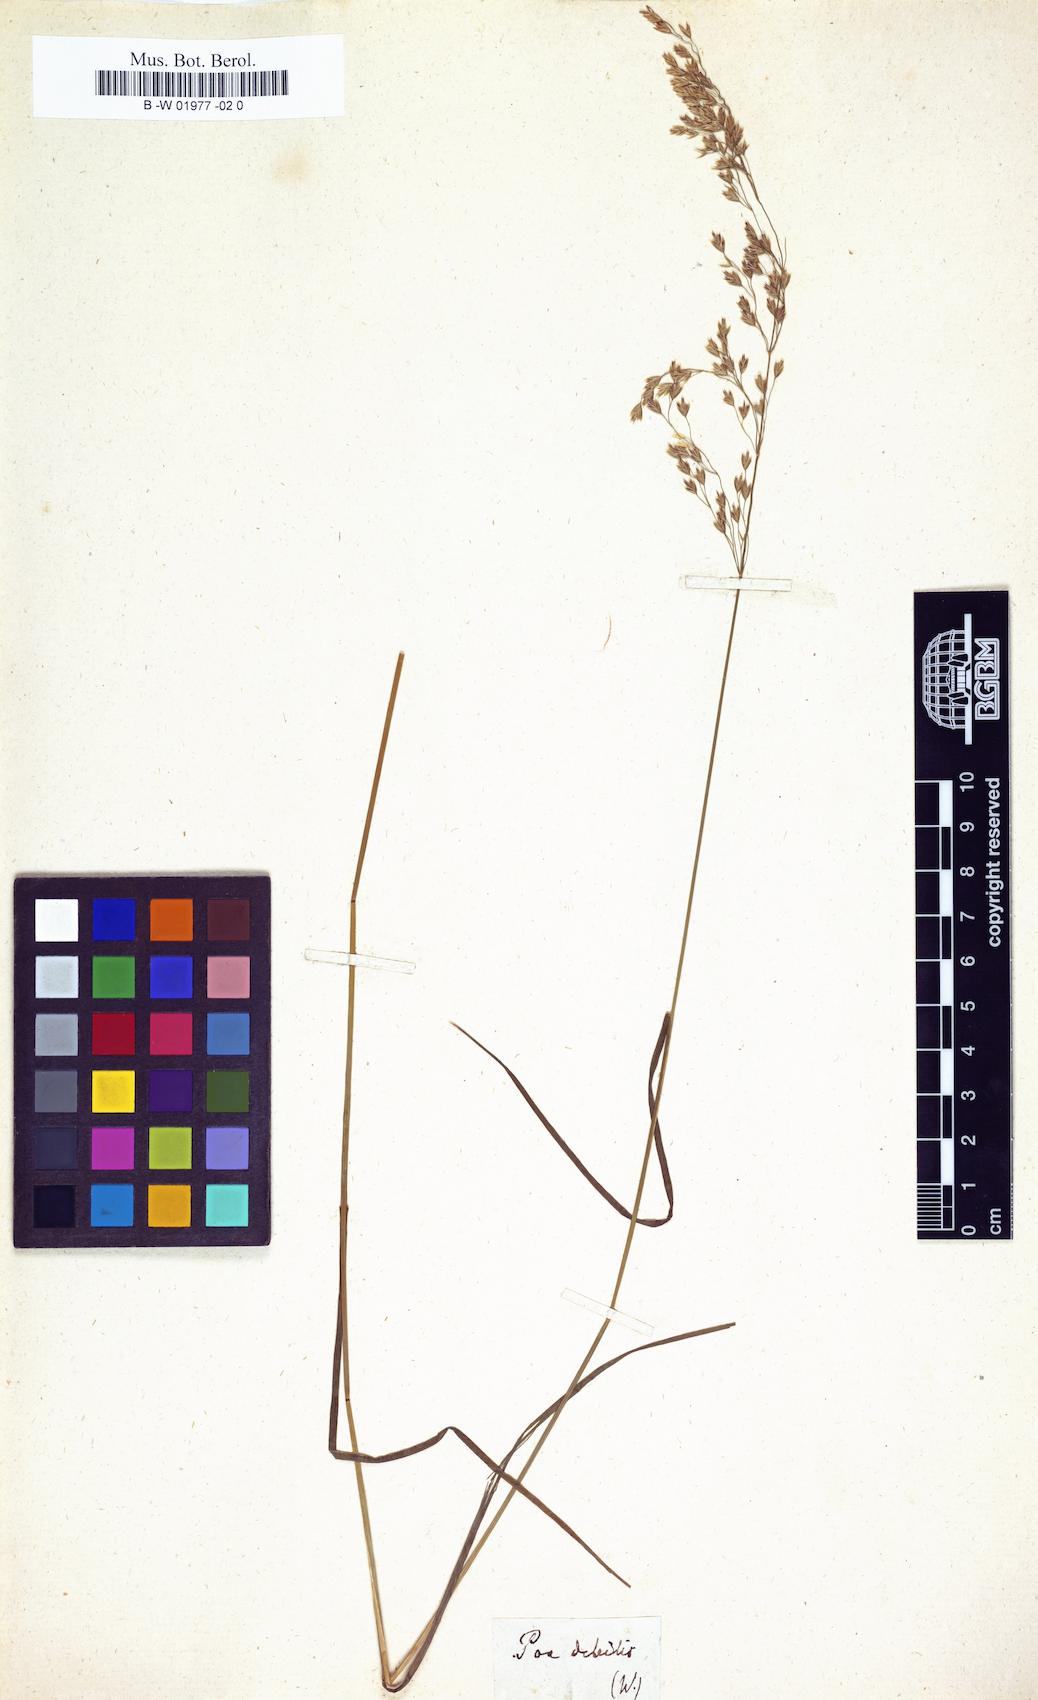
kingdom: Plantae
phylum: Tracheophyta
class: Liliopsida
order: Poales
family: Poaceae
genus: Poa
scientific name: Poa
